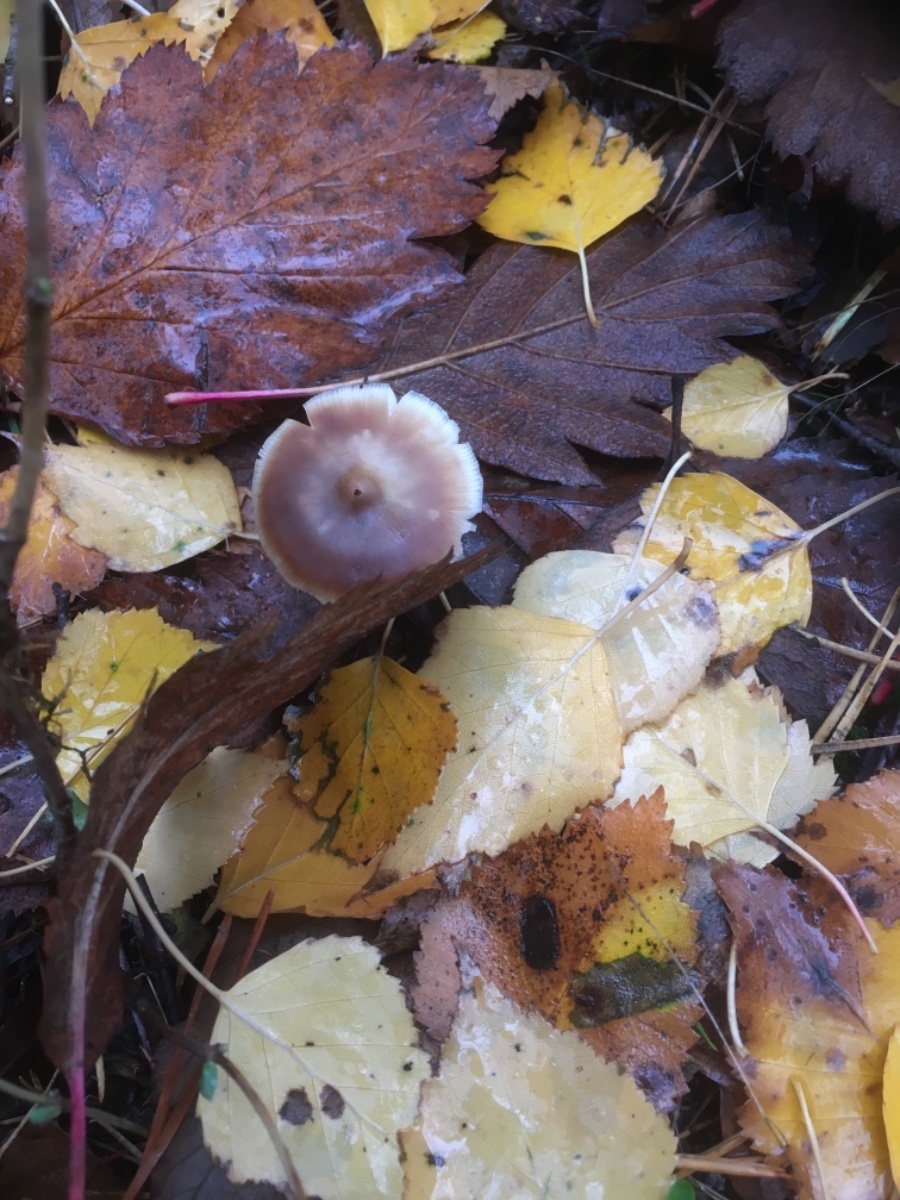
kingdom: Fungi
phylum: Basidiomycota
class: Agaricomycetes
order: Agaricales
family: Omphalotaceae
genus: Rhodocollybia
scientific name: Rhodocollybia asema
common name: horngrå fladhat
